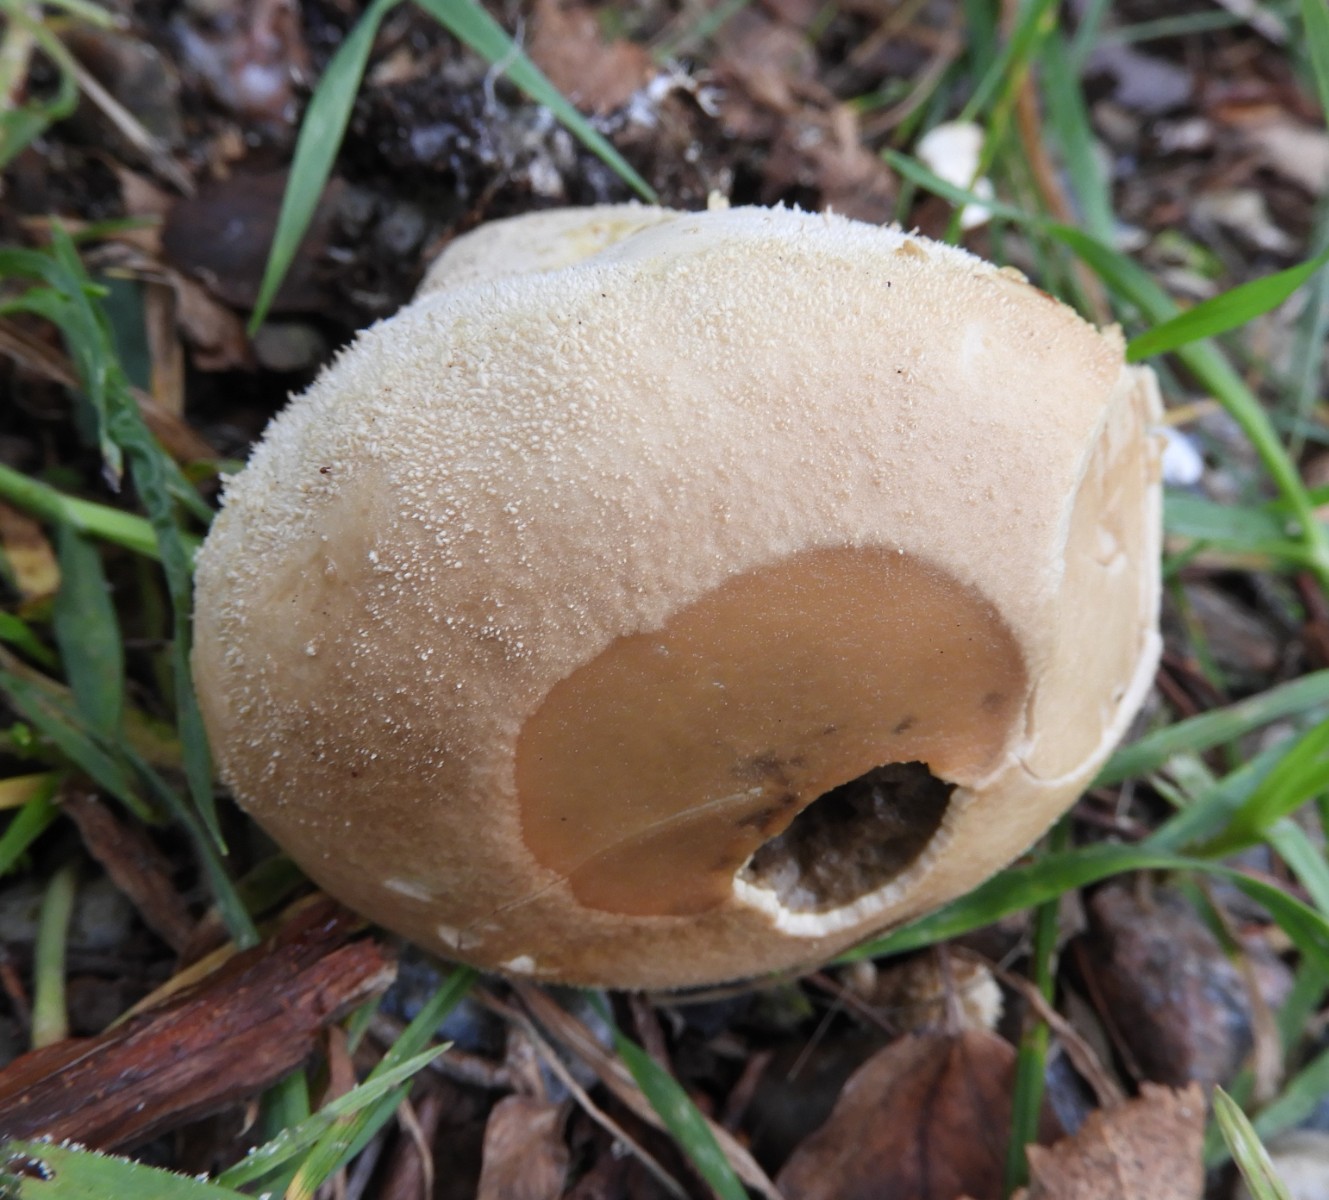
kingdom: Fungi
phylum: Basidiomycota
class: Agaricomycetes
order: Agaricales
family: Lycoperdaceae
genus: Lycoperdon
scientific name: Lycoperdon pratense
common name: flad støvbold
